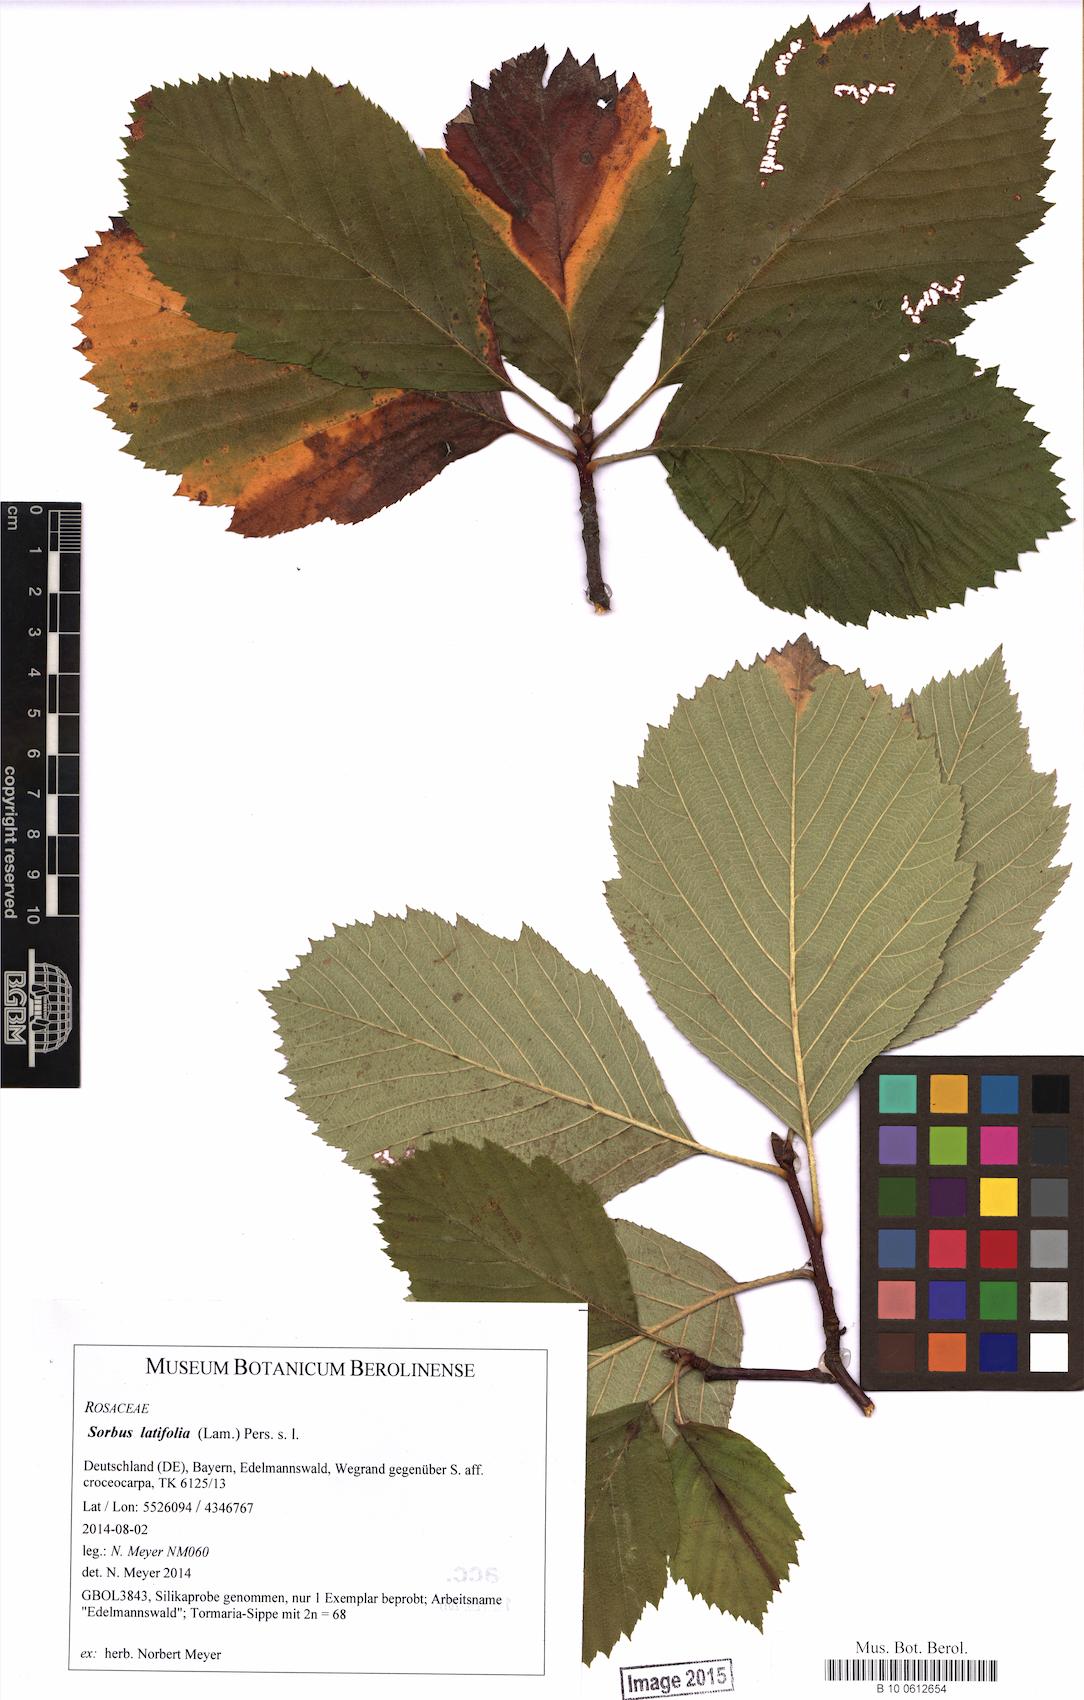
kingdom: Plantae
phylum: Tracheophyta
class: Magnoliopsida
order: Rosales
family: Rosaceae
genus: Karpatiosorbus
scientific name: Karpatiosorbus latifolia
